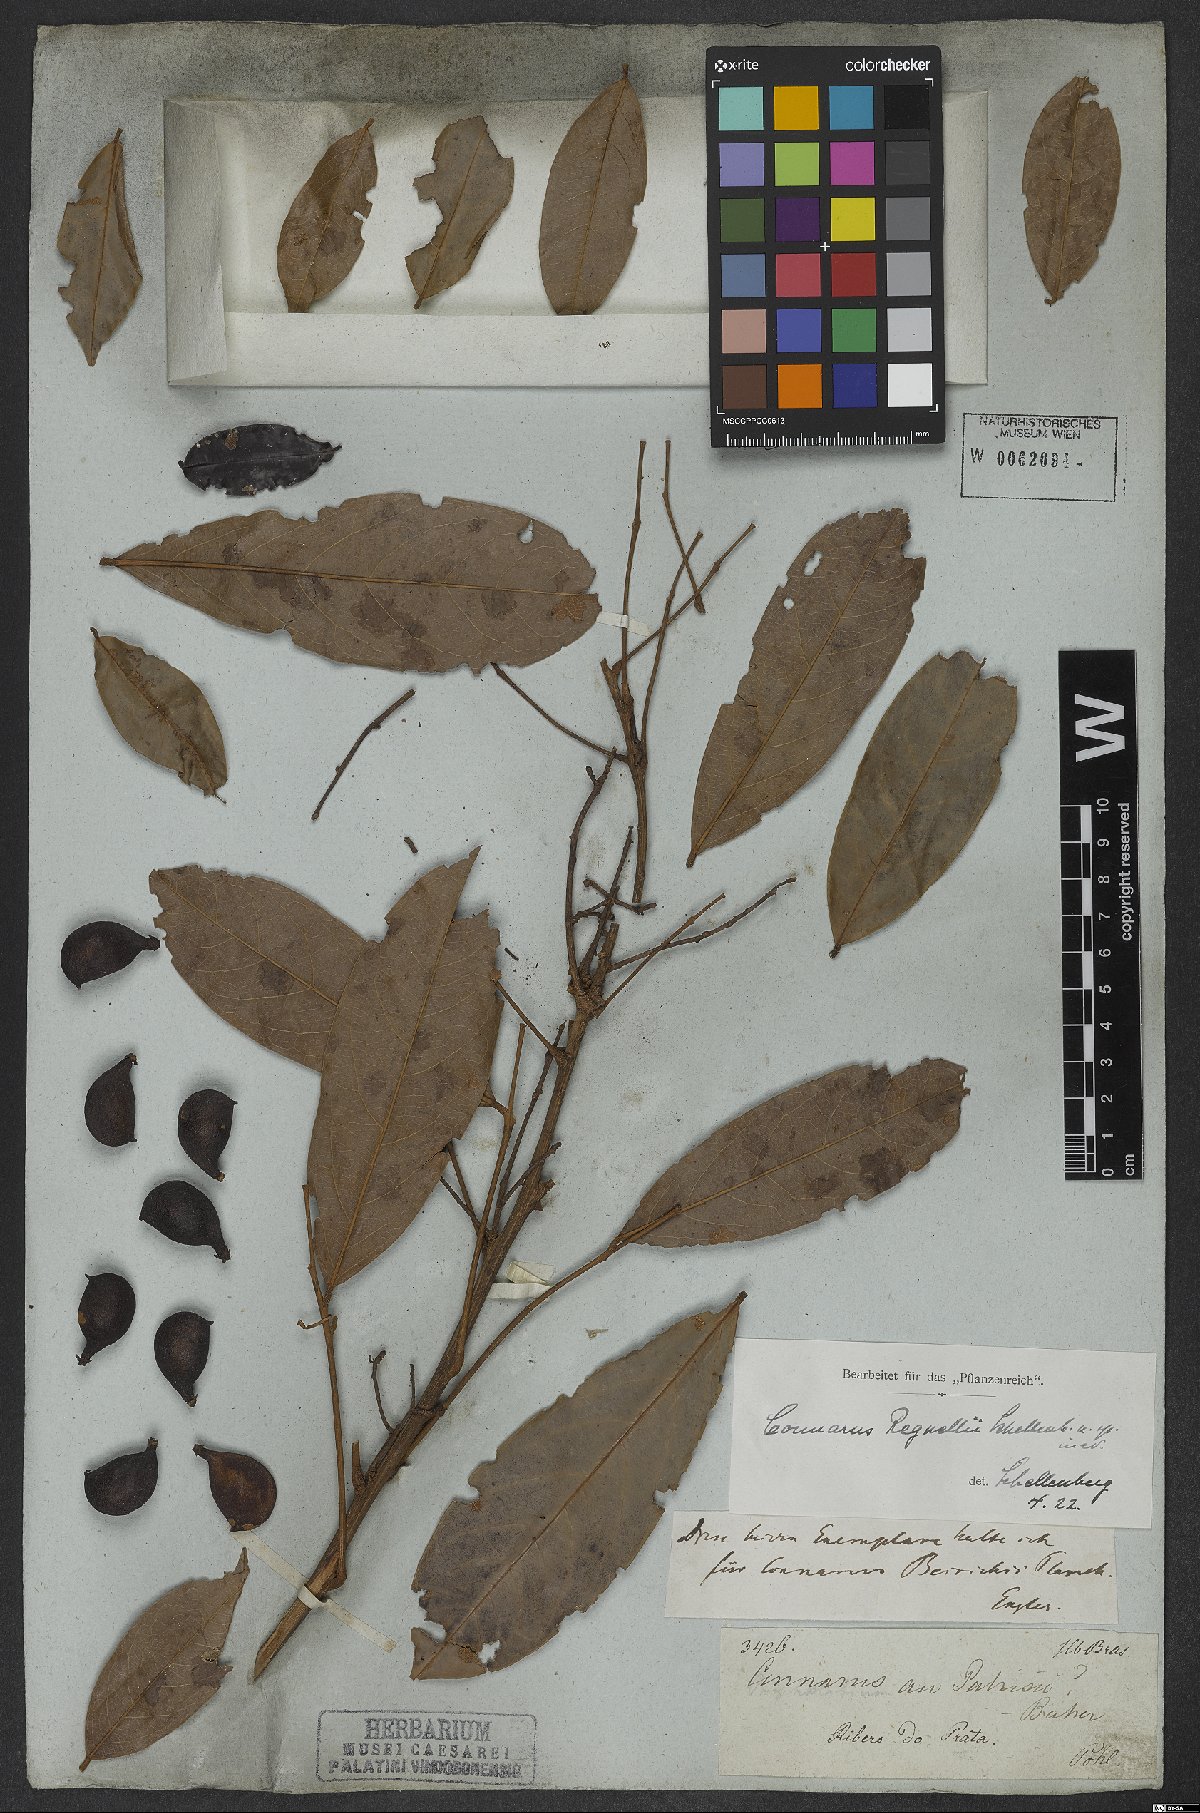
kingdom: Plantae
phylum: Tracheophyta
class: Magnoliopsida
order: Oxalidales
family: Connaraceae
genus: Connarus
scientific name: Connarus regnellii
